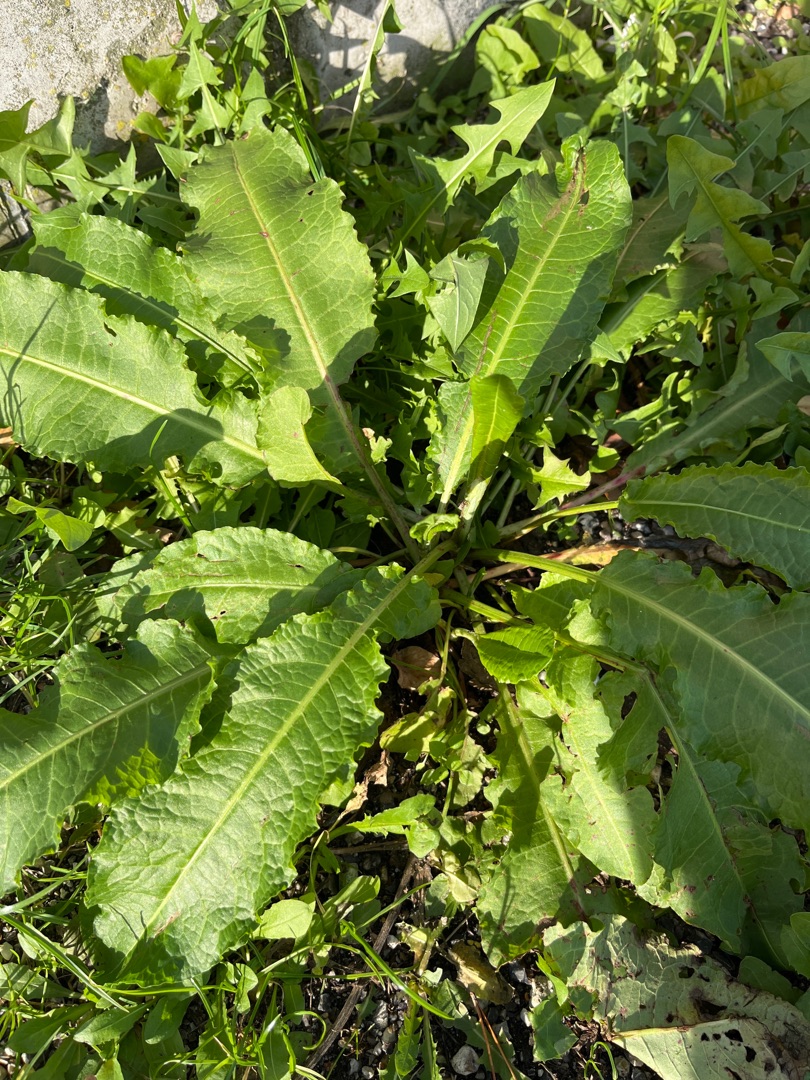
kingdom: Plantae
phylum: Tracheophyta
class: Magnoliopsida
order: Caryophyllales
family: Polygonaceae
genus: Rumex
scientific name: Rumex
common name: Skræppeslægten
